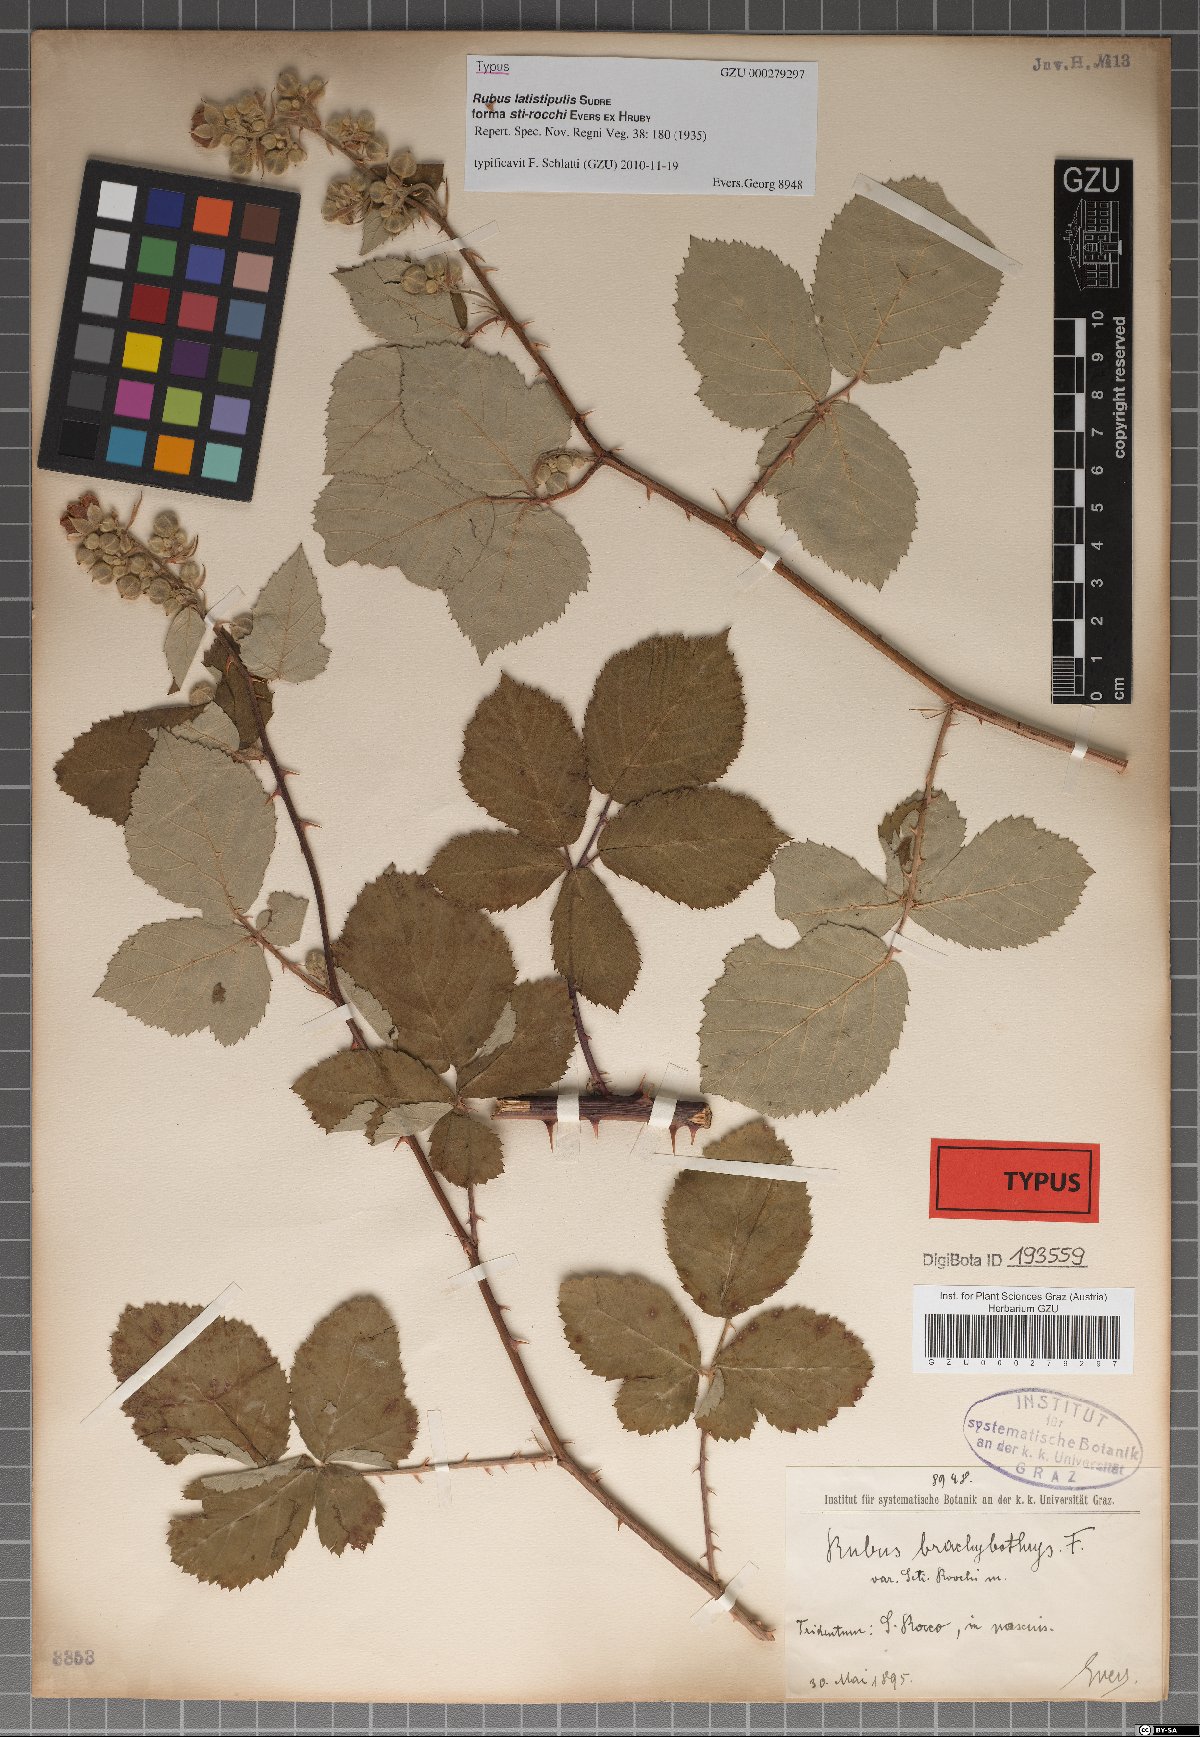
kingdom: Plantae
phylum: Tracheophyta
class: Magnoliopsida
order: Rosales
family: Rosaceae
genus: Rubus
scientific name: Rubus latistipulus
